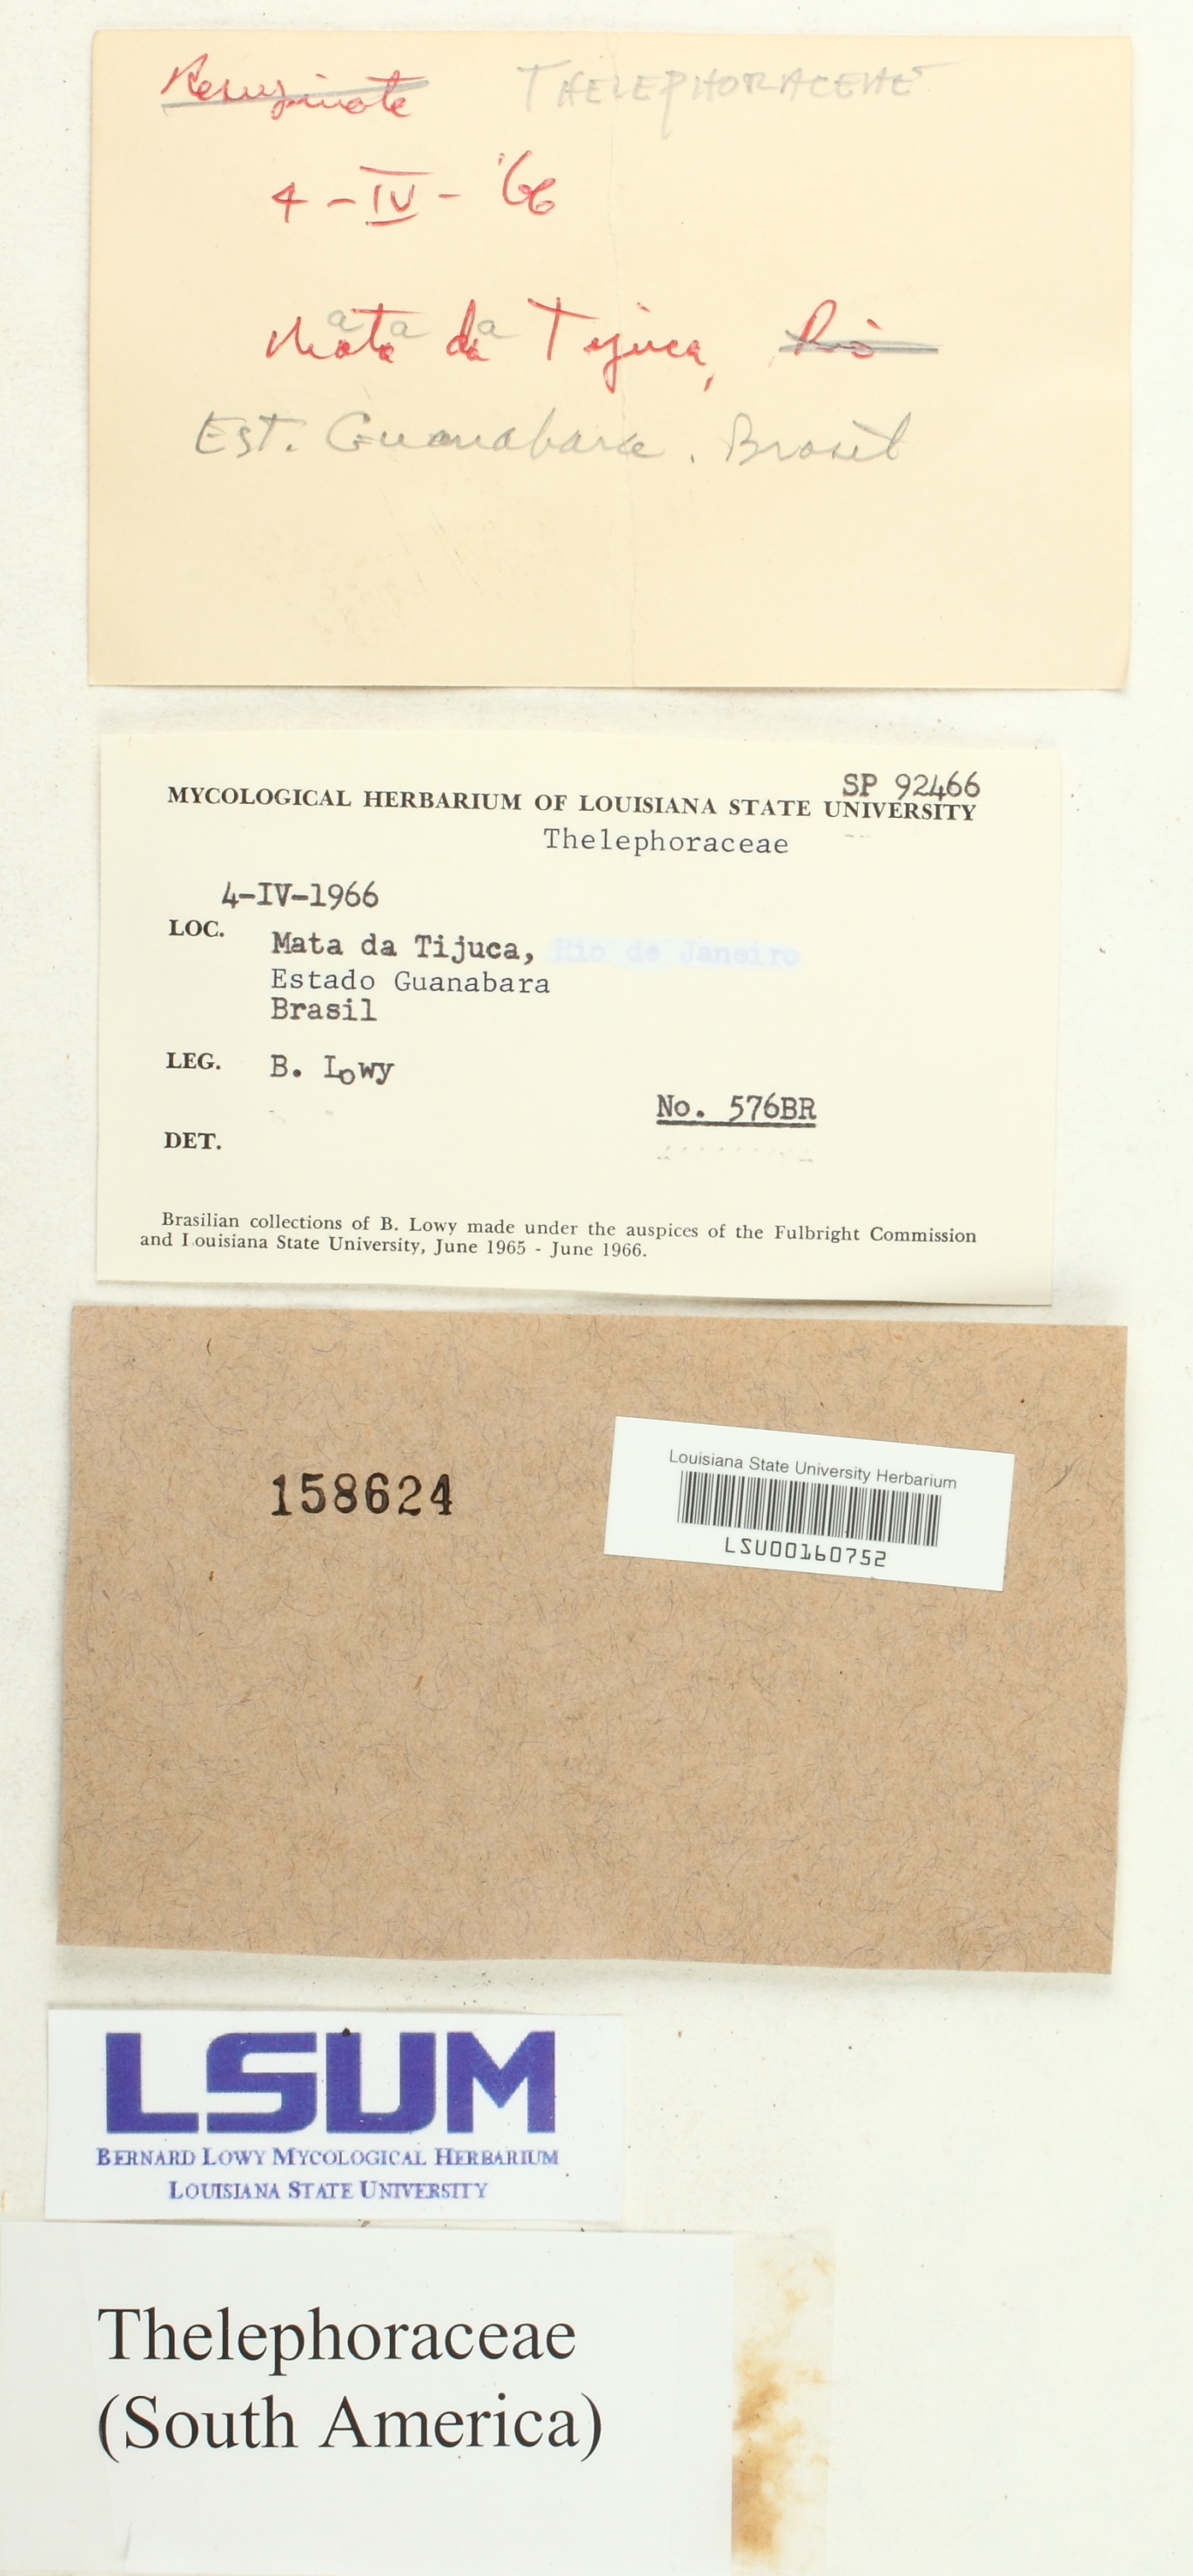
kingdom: Fungi
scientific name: Fungi
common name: Fungi
